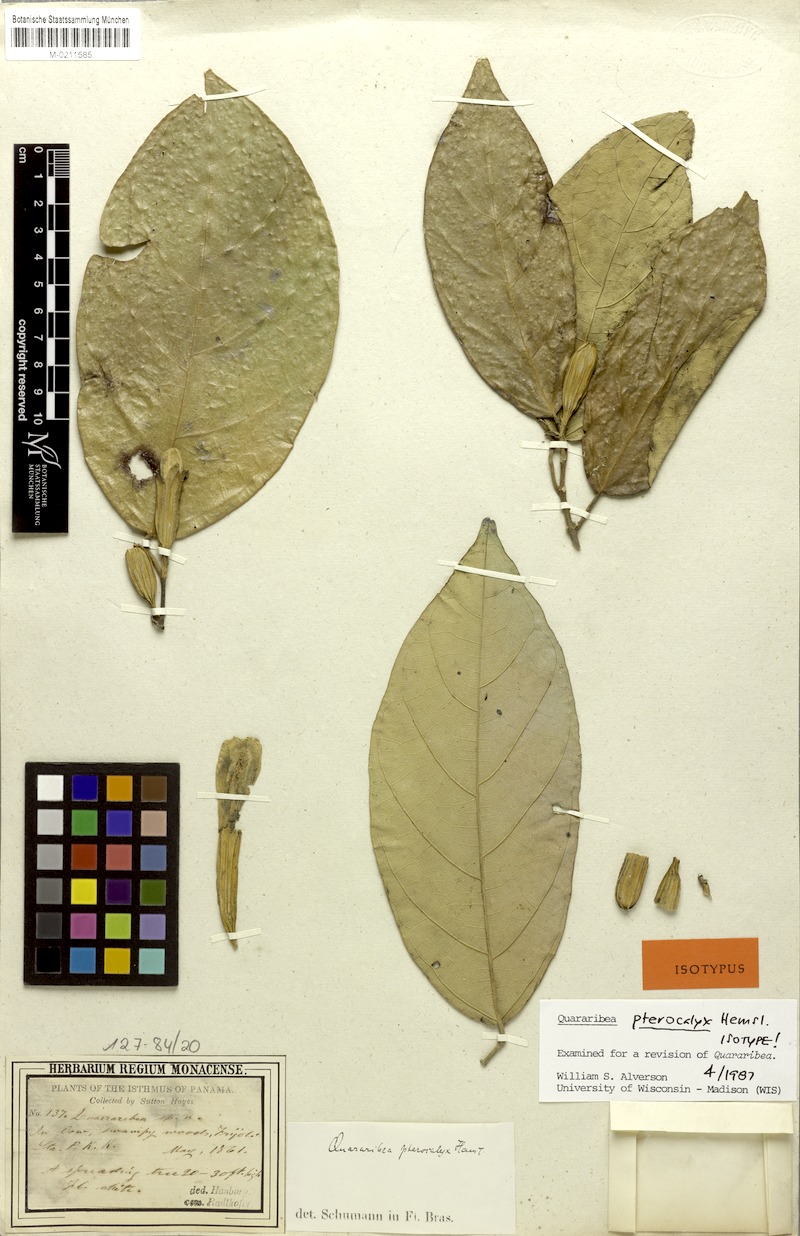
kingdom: Plantae
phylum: Tracheophyta
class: Magnoliopsida
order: Malvales
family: Malvaceae
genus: Quararibea
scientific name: Quararibea pterocalyx
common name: Wild palm
